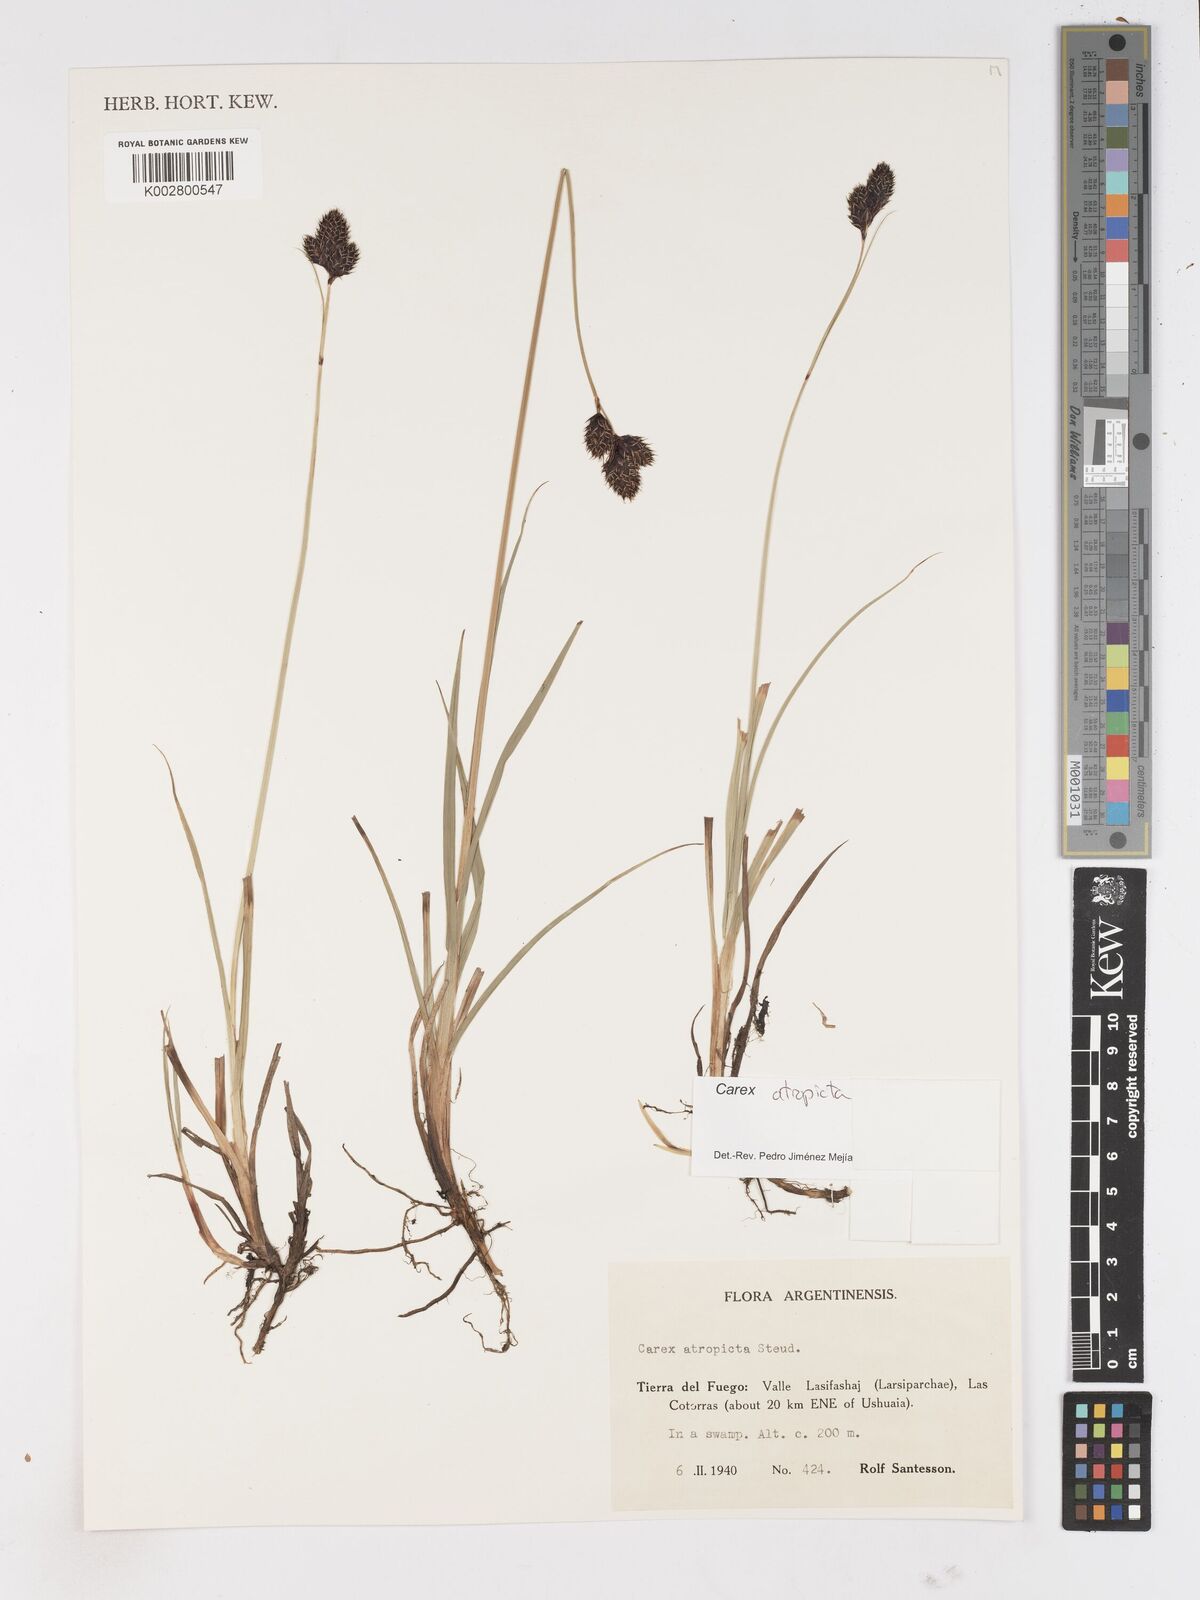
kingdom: Plantae
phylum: Tracheophyta
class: Liliopsida
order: Poales
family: Cyperaceae
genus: Carex
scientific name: Carex atropicta
